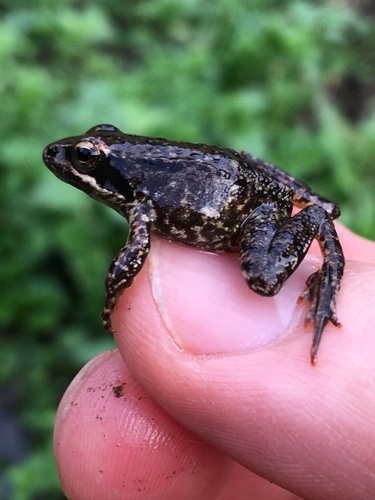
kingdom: Animalia
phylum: Chordata
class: Amphibia
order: Anura
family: Ranidae
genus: Rana
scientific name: Rana iberica
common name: Iberian frog
